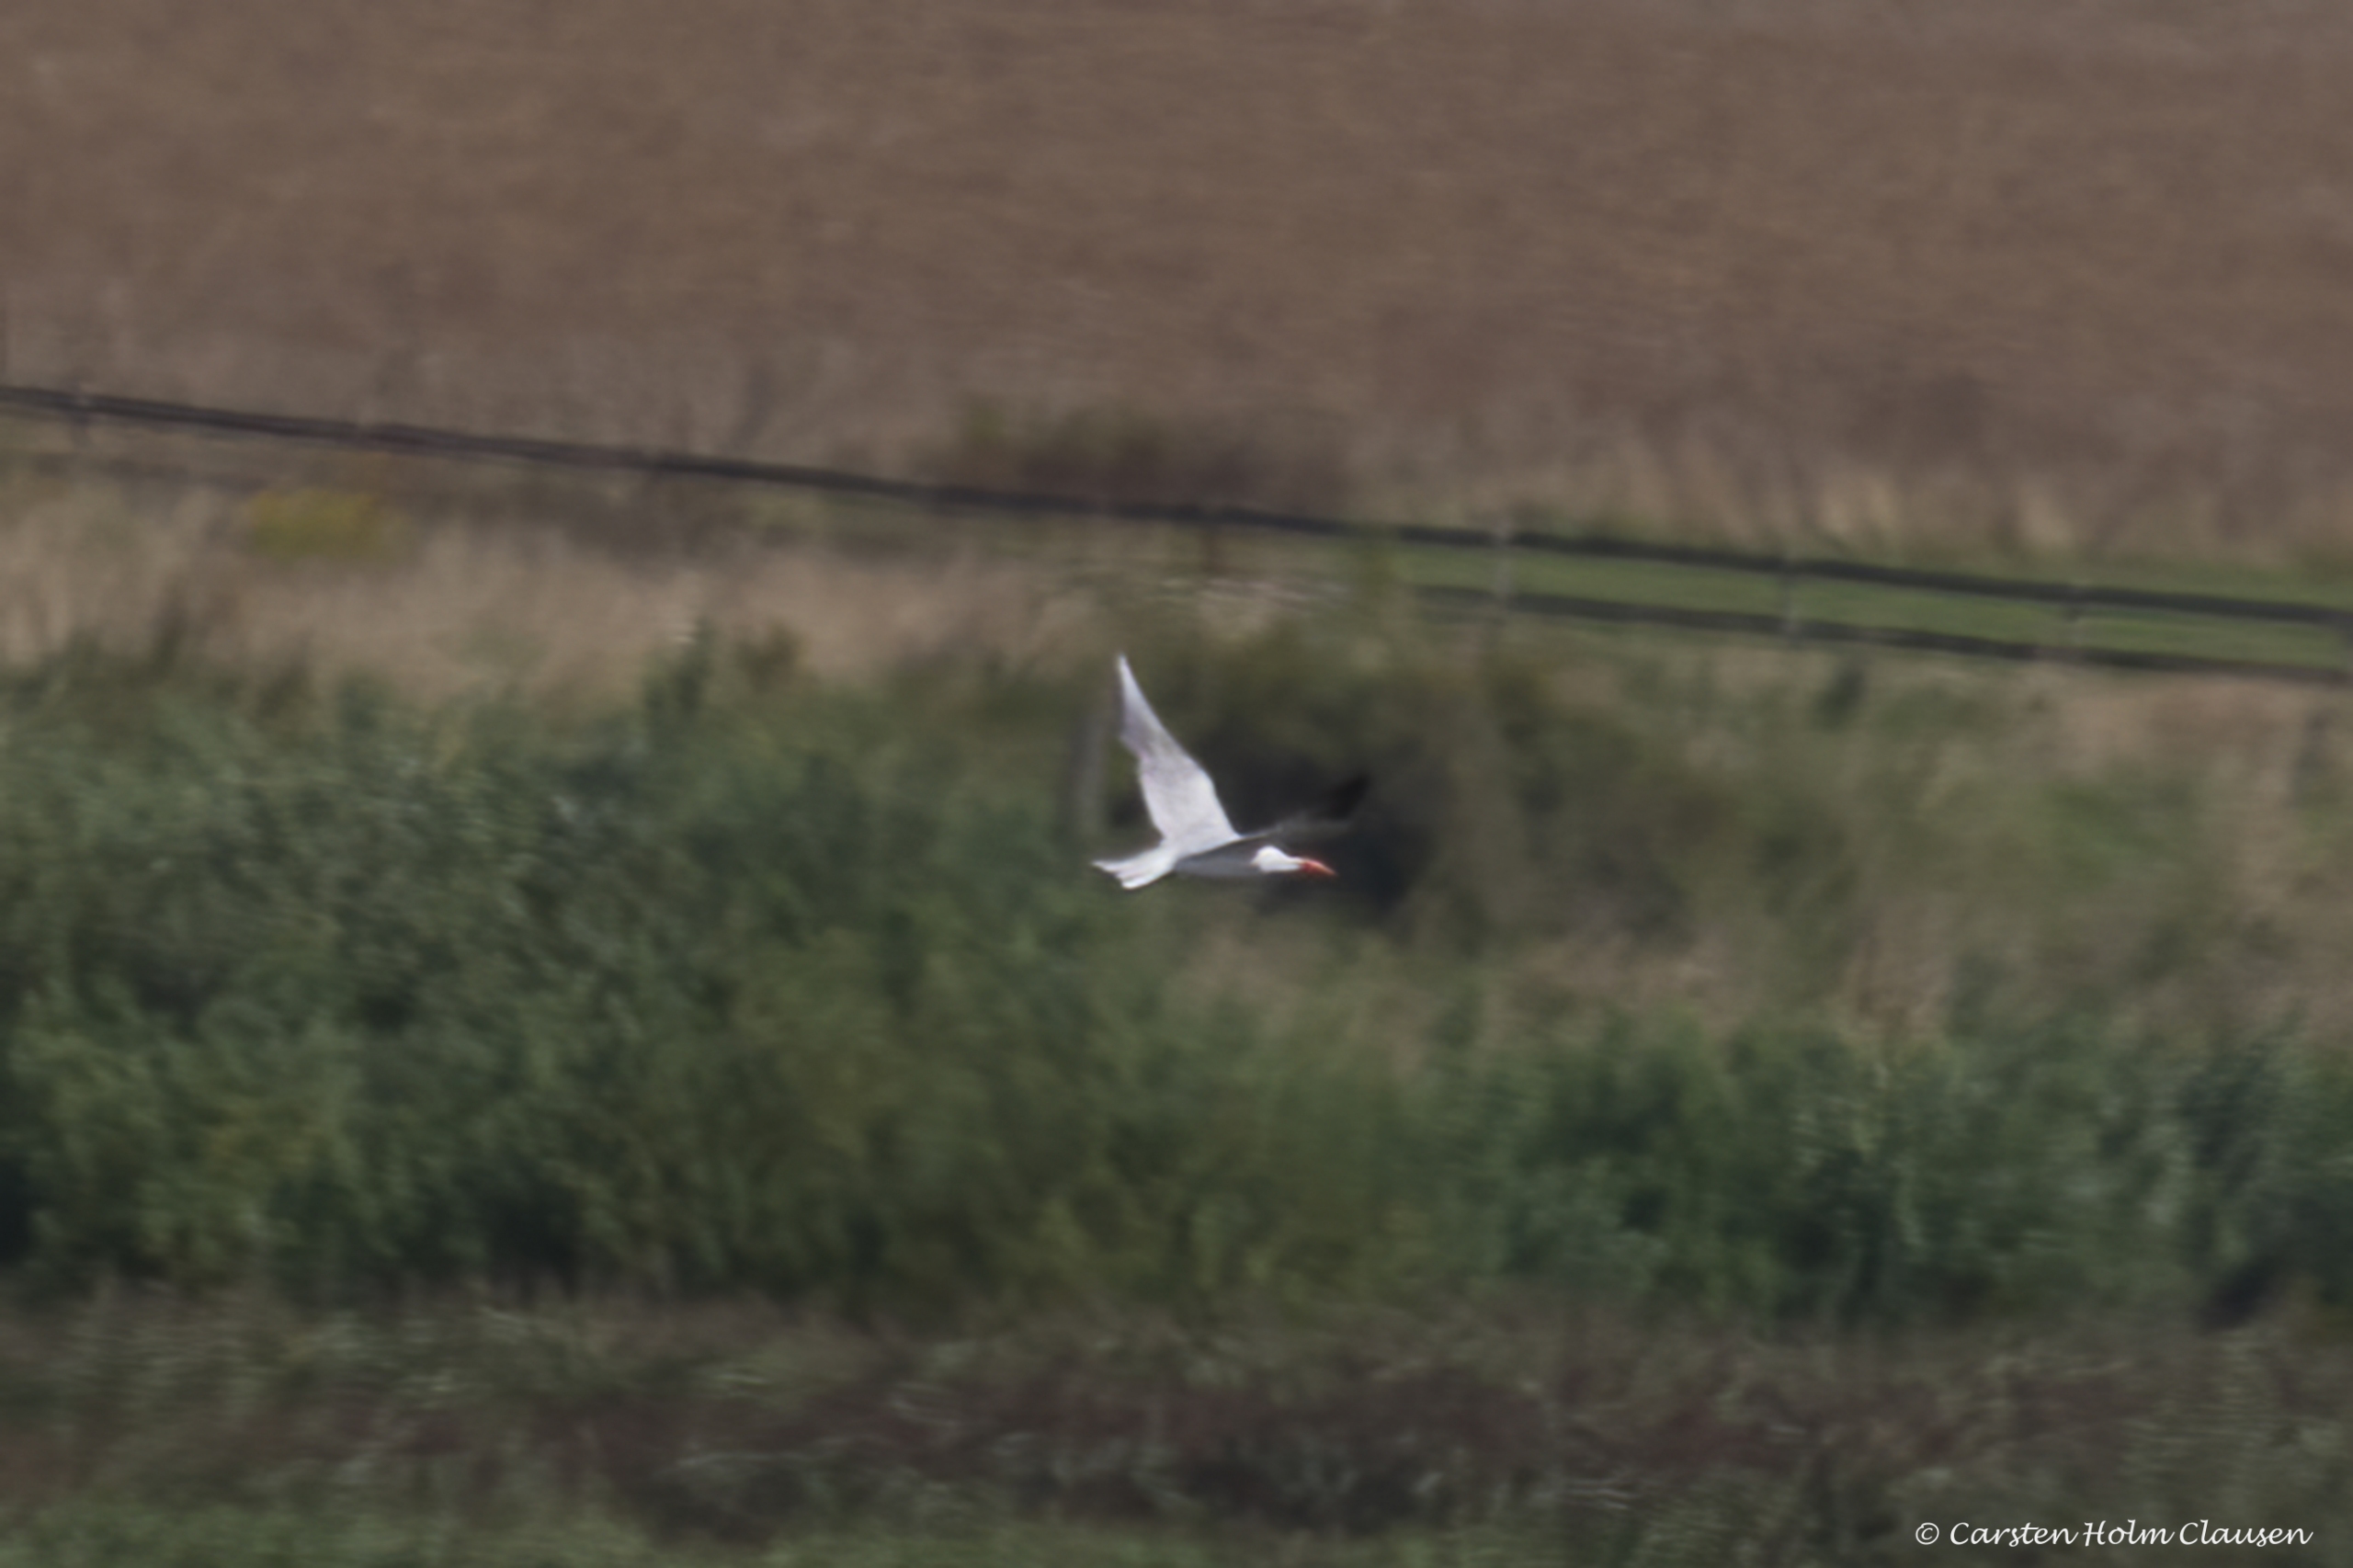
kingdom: Animalia
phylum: Chordata
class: Aves
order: Charadriiformes
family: Laridae
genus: Hydroprogne
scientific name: Hydroprogne caspia
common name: Rovterne
